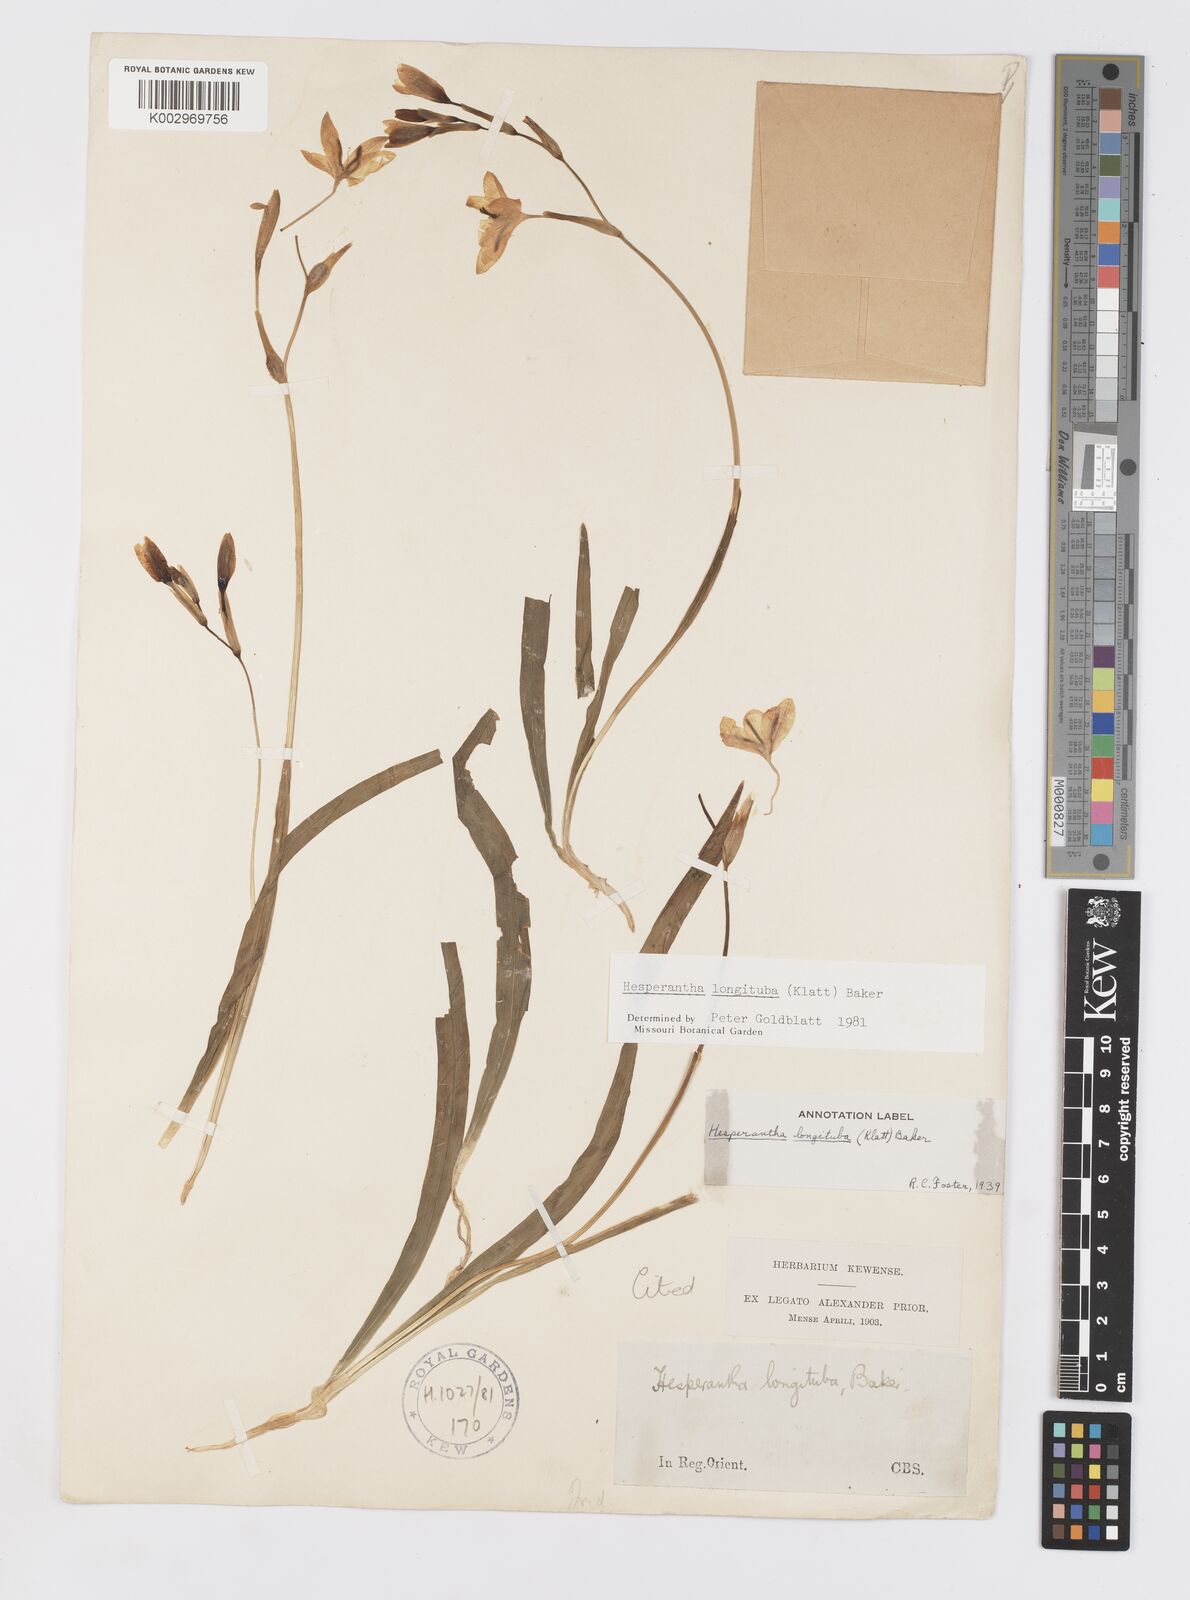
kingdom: Plantae
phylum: Tracheophyta
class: Liliopsida
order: Asparagales
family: Iridaceae
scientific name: Iridaceae
